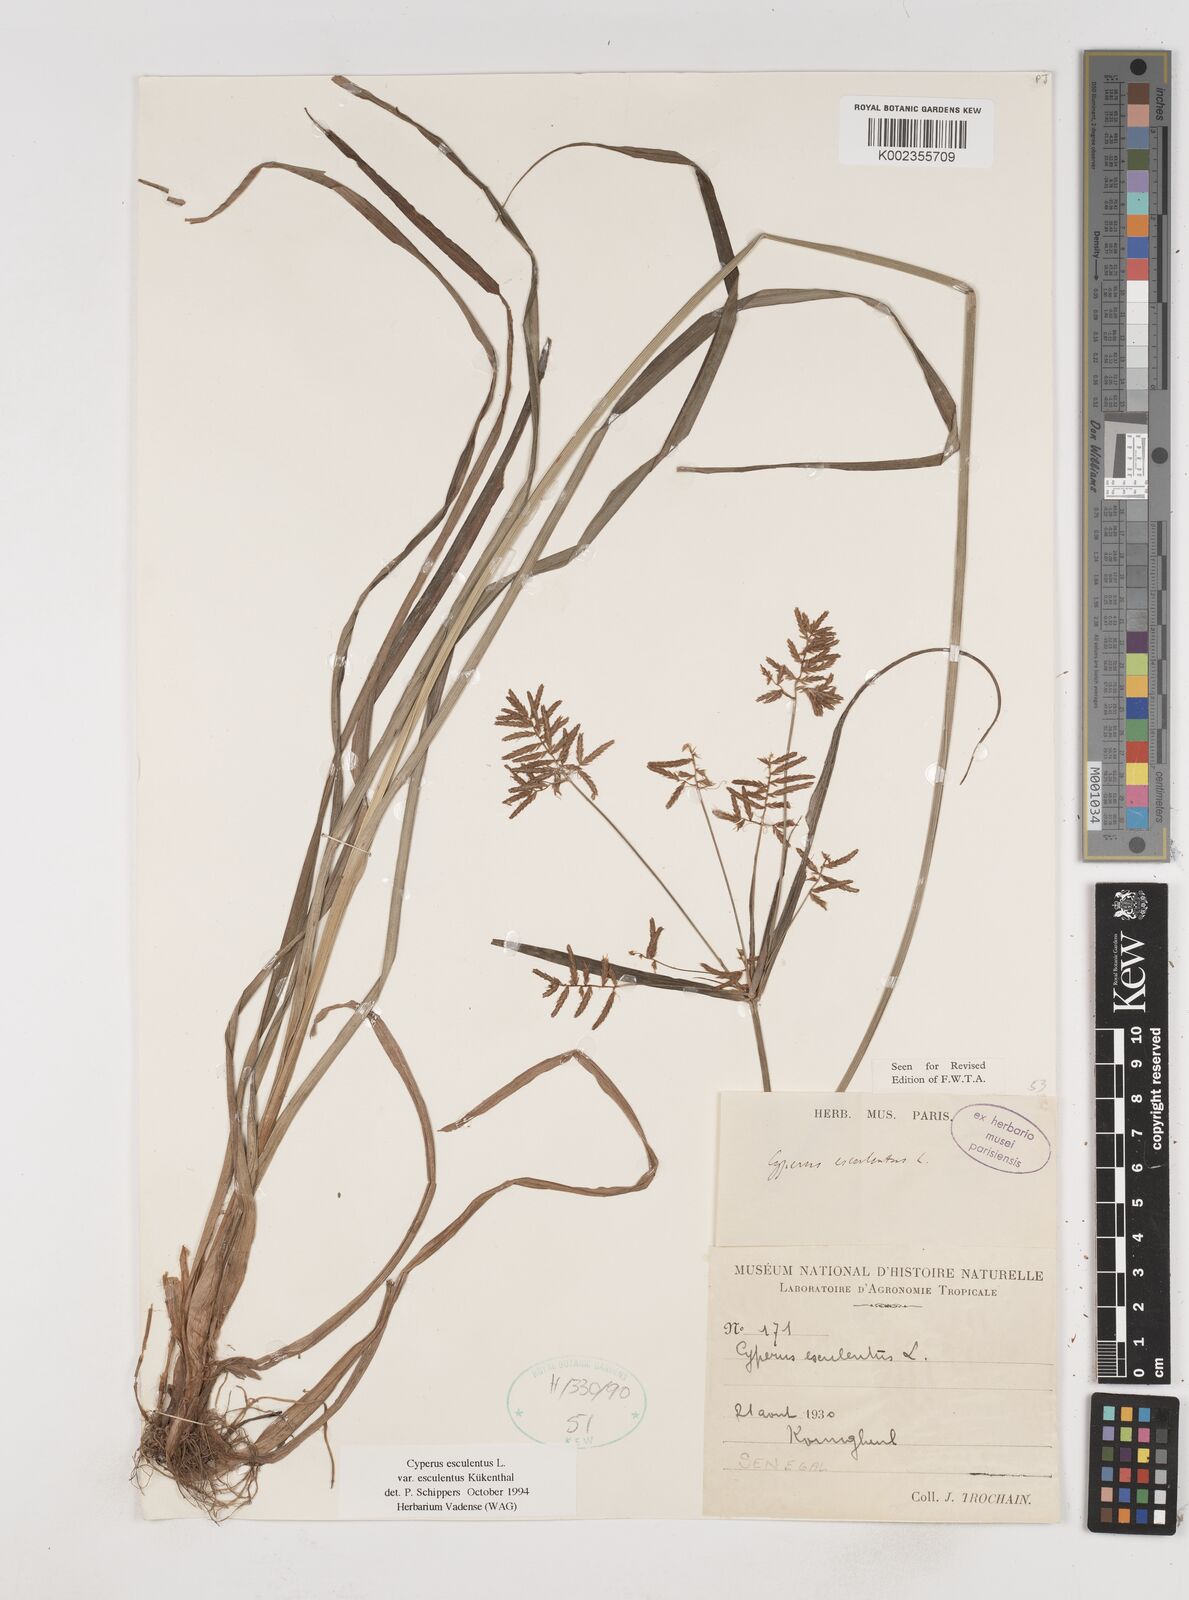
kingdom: Plantae
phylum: Tracheophyta
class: Liliopsida
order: Poales
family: Cyperaceae
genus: Cyperus
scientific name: Cyperus esculentus
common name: Yellow nutsedge
